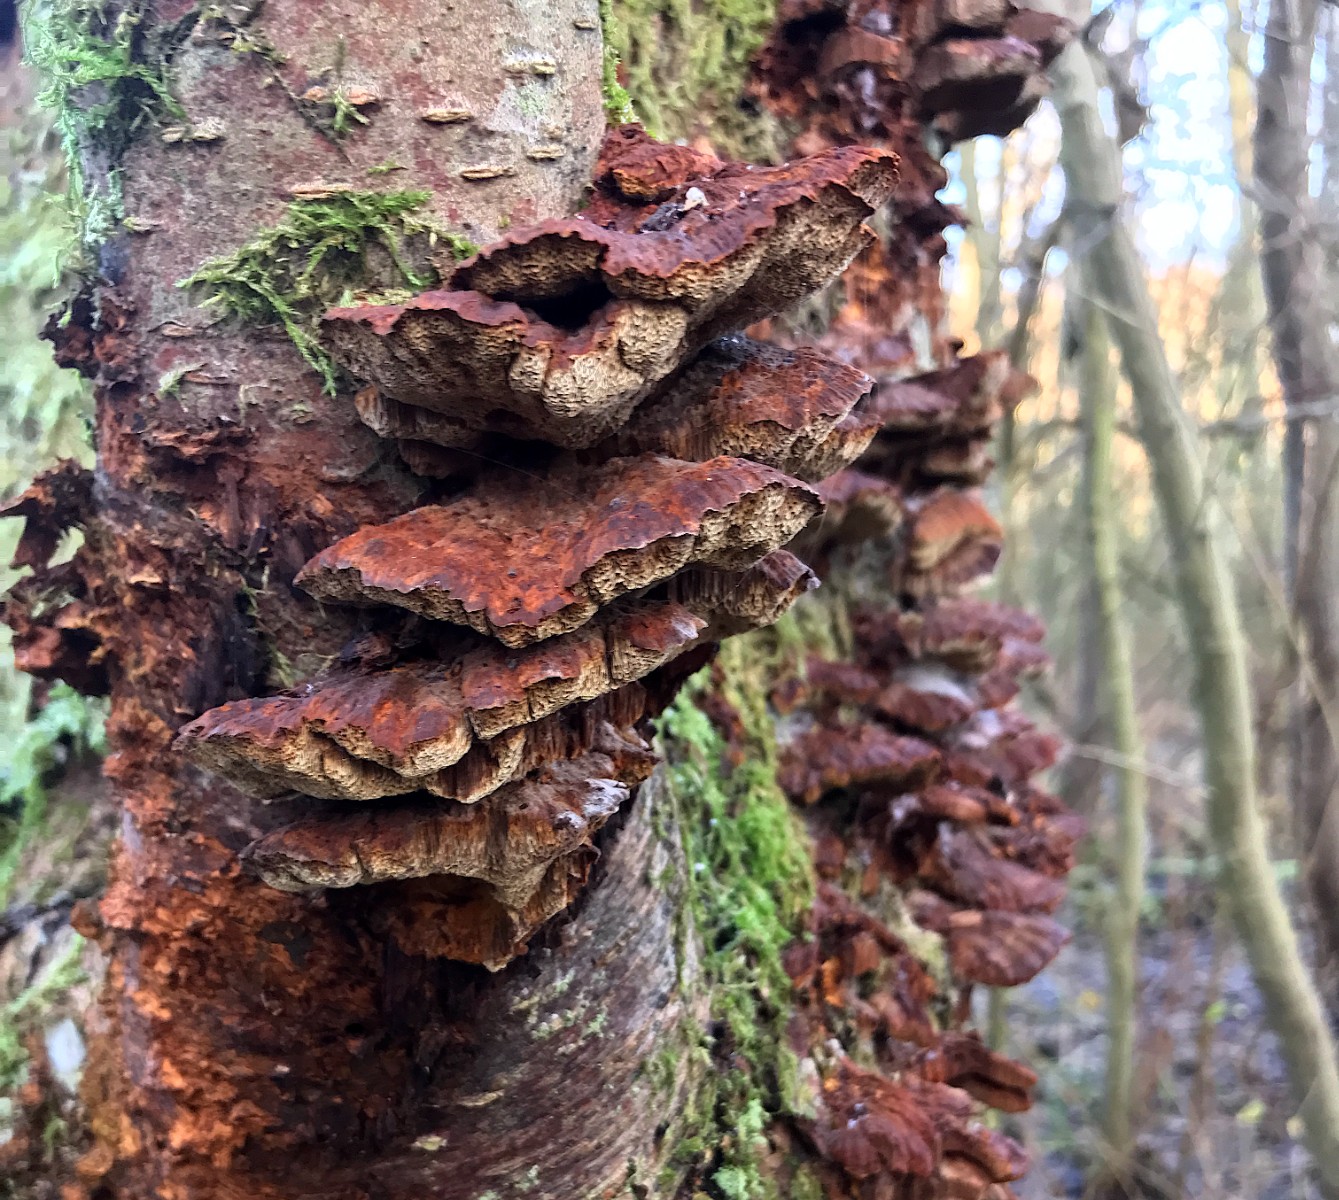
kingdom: Fungi
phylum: Basidiomycota
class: Agaricomycetes
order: Hymenochaetales
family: Hymenochaetaceae
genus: Xanthoporia
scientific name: Xanthoporia radiata
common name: elle-spejlporesvamp
